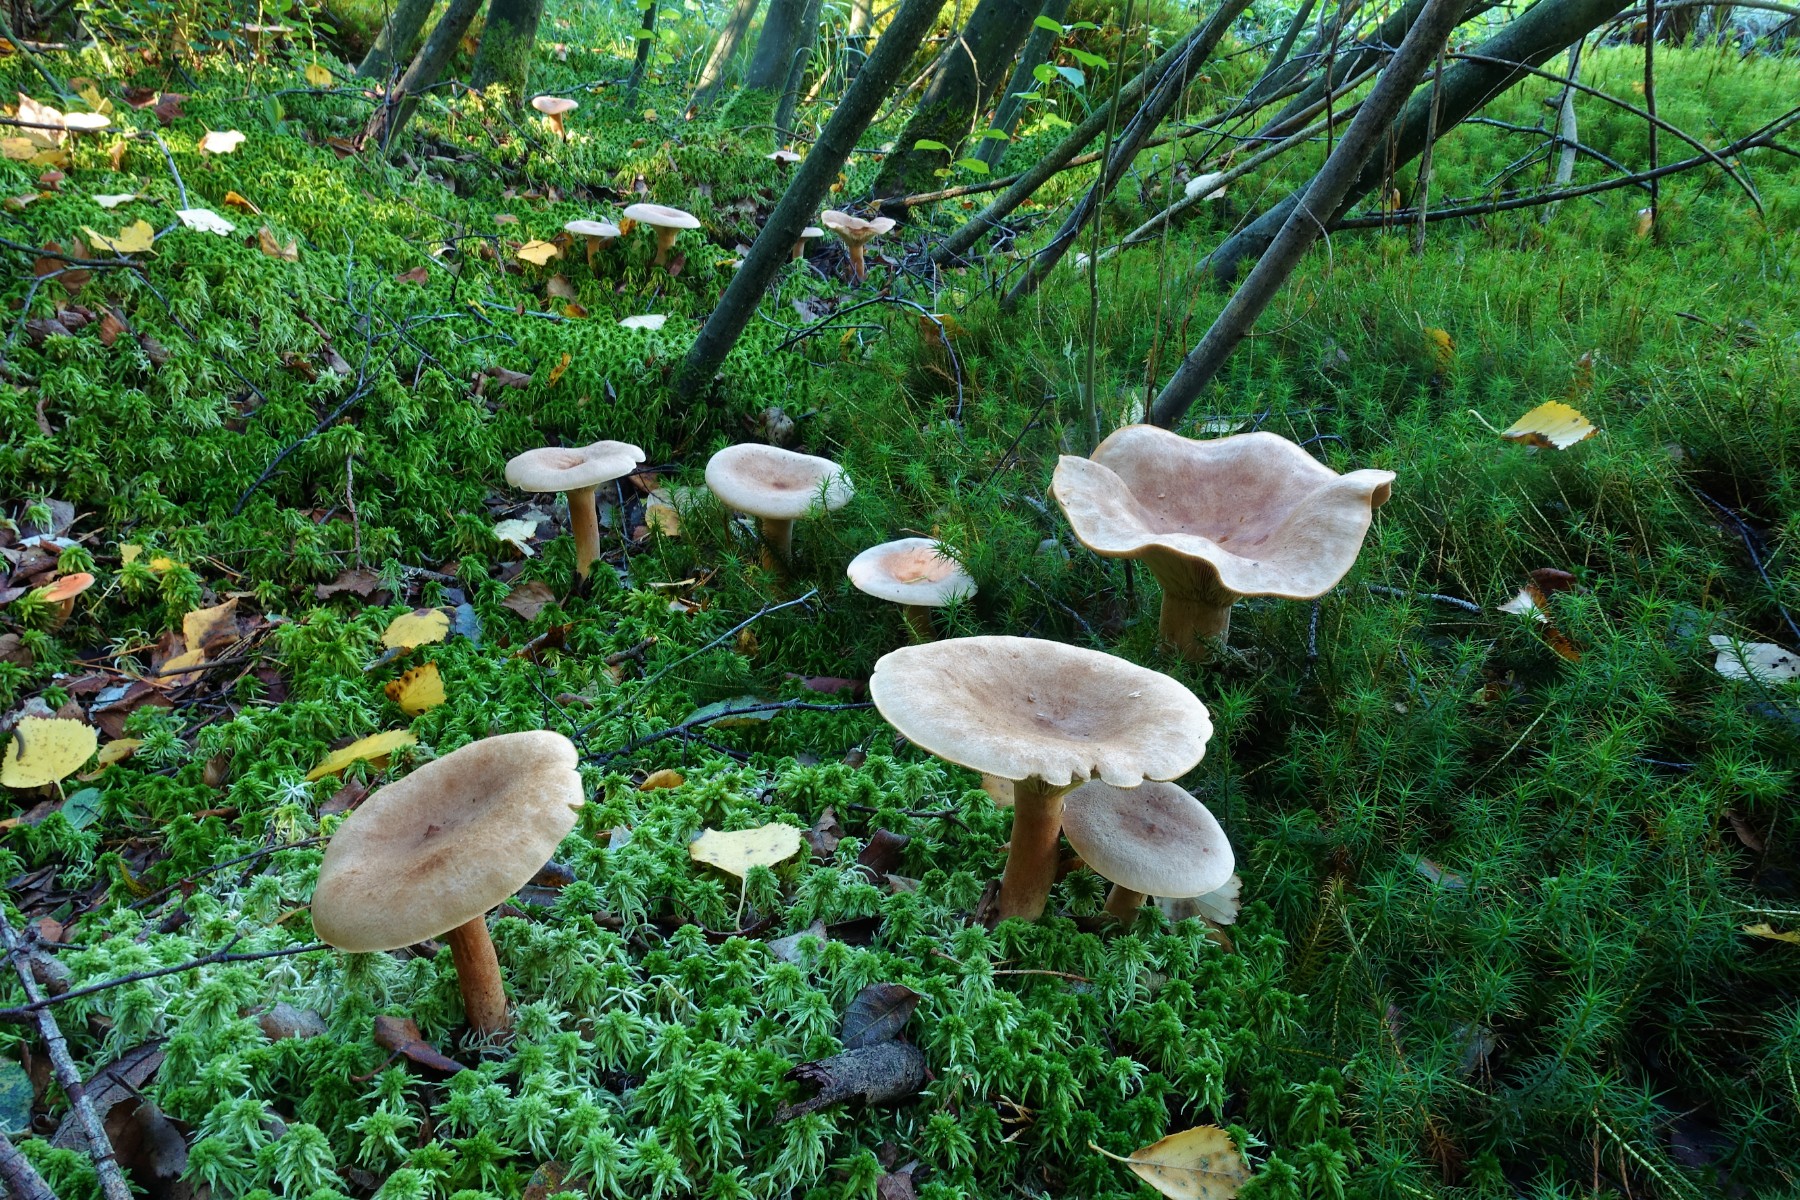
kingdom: Fungi
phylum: Basidiomycota
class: Agaricomycetes
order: Russulales
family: Russulaceae
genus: Lactarius
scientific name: Lactarius helvus
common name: mose-mælkehat
